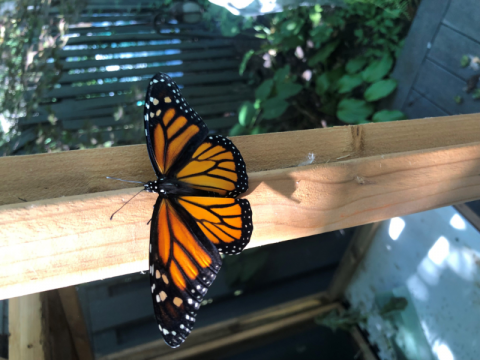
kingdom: Animalia
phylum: Arthropoda
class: Insecta
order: Lepidoptera
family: Nymphalidae
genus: Danaus
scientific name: Danaus plexippus
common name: Monarch
